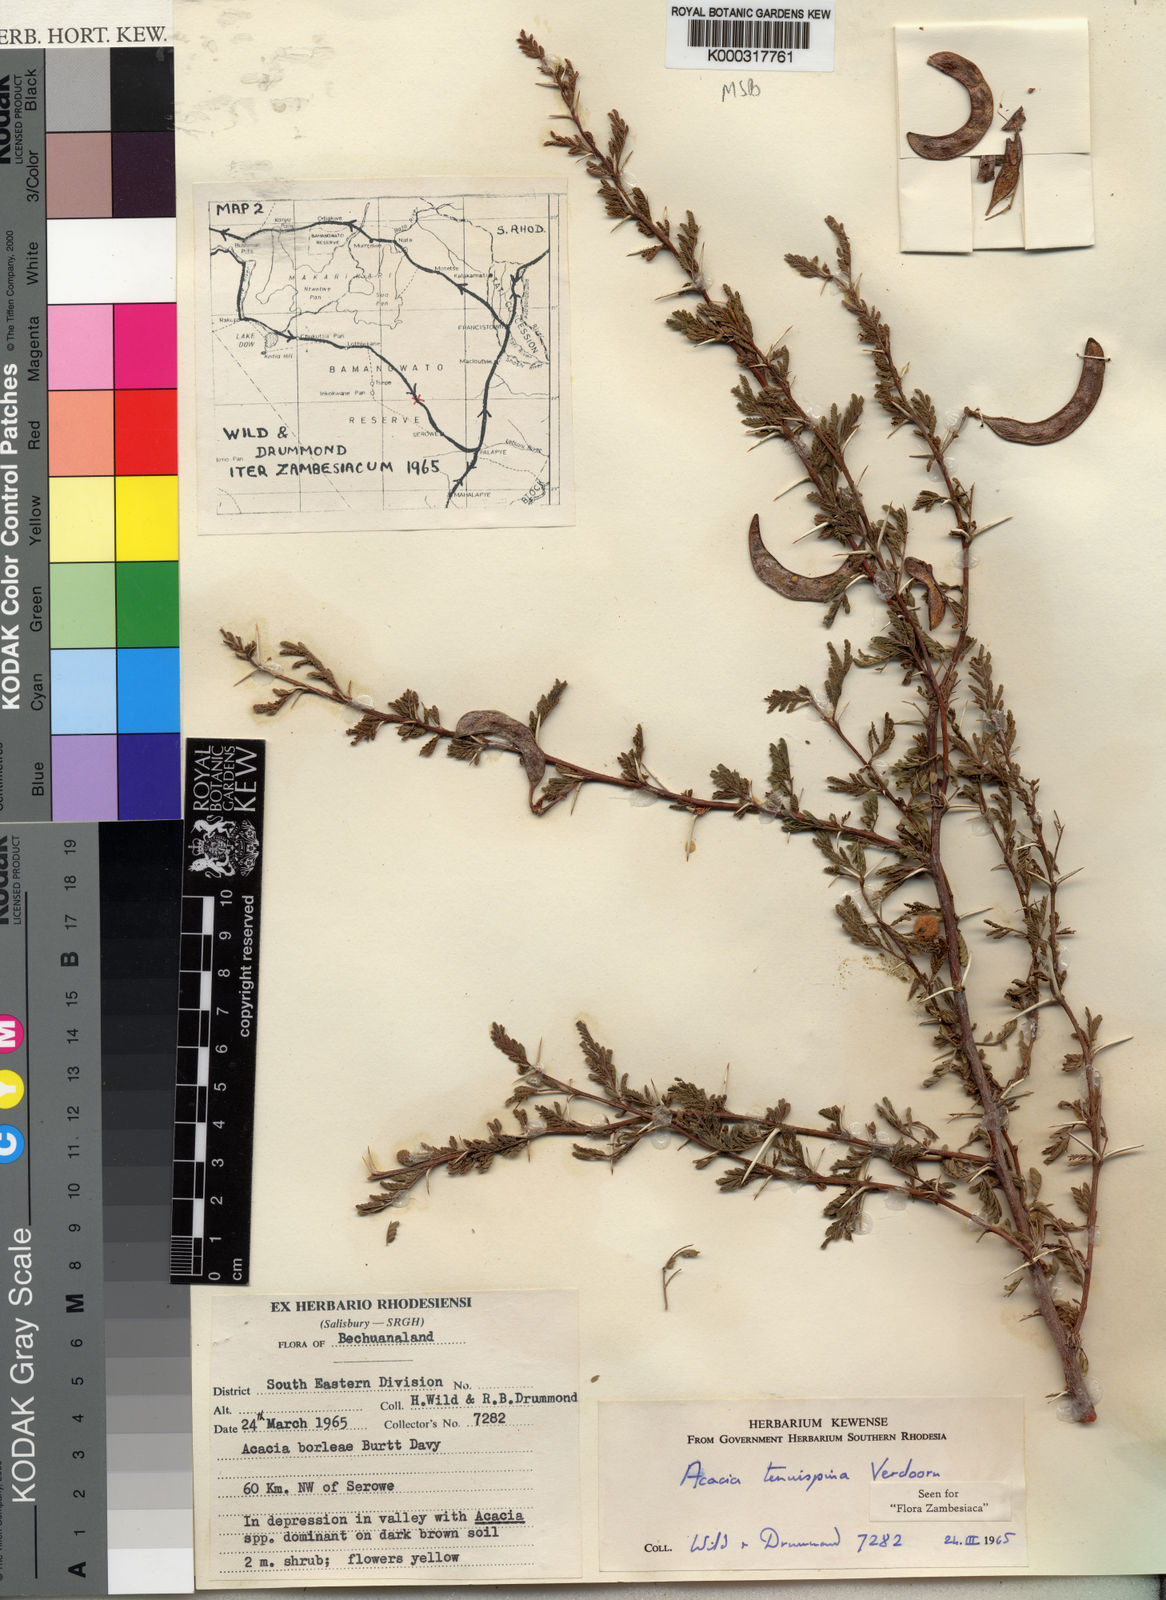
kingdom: Plantae
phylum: Tracheophyta
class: Magnoliopsida
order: Fabales
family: Fabaceae
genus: Vachellia
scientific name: Vachellia tenuispina
